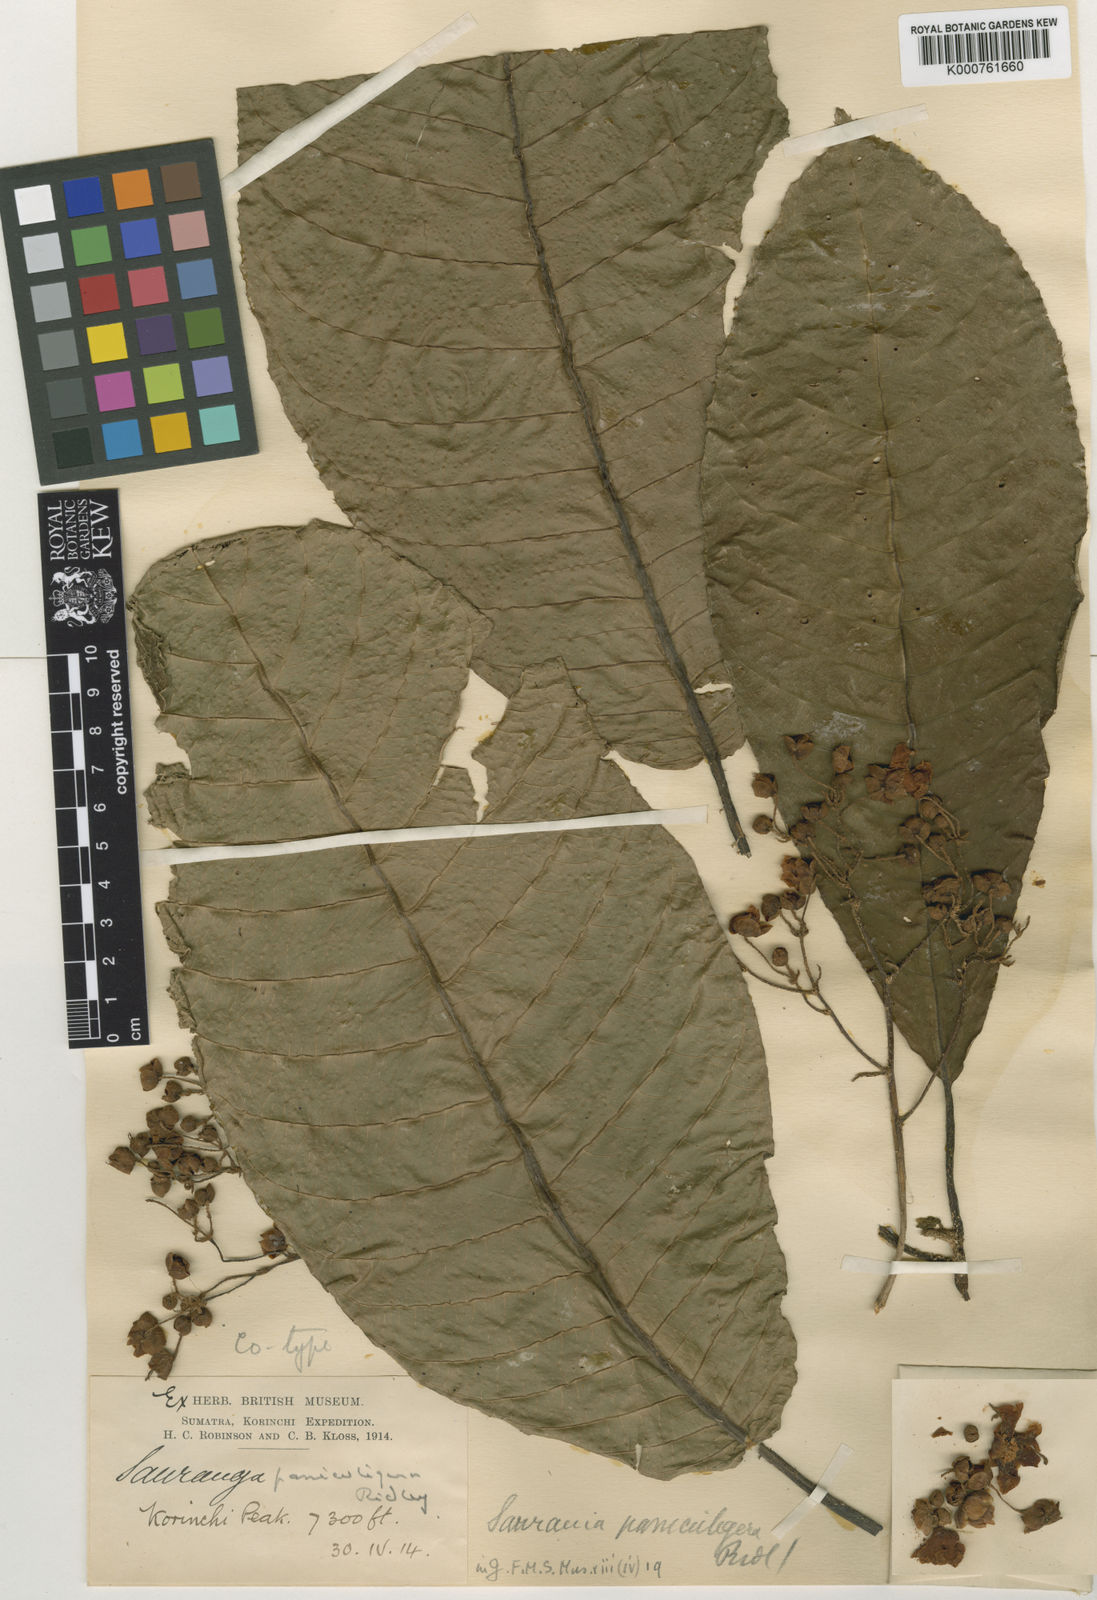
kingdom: Plantae
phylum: Tracheophyta
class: Magnoliopsida
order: Ericales
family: Actinidiaceae
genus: Saurauia
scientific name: Saurauia paniculigera
